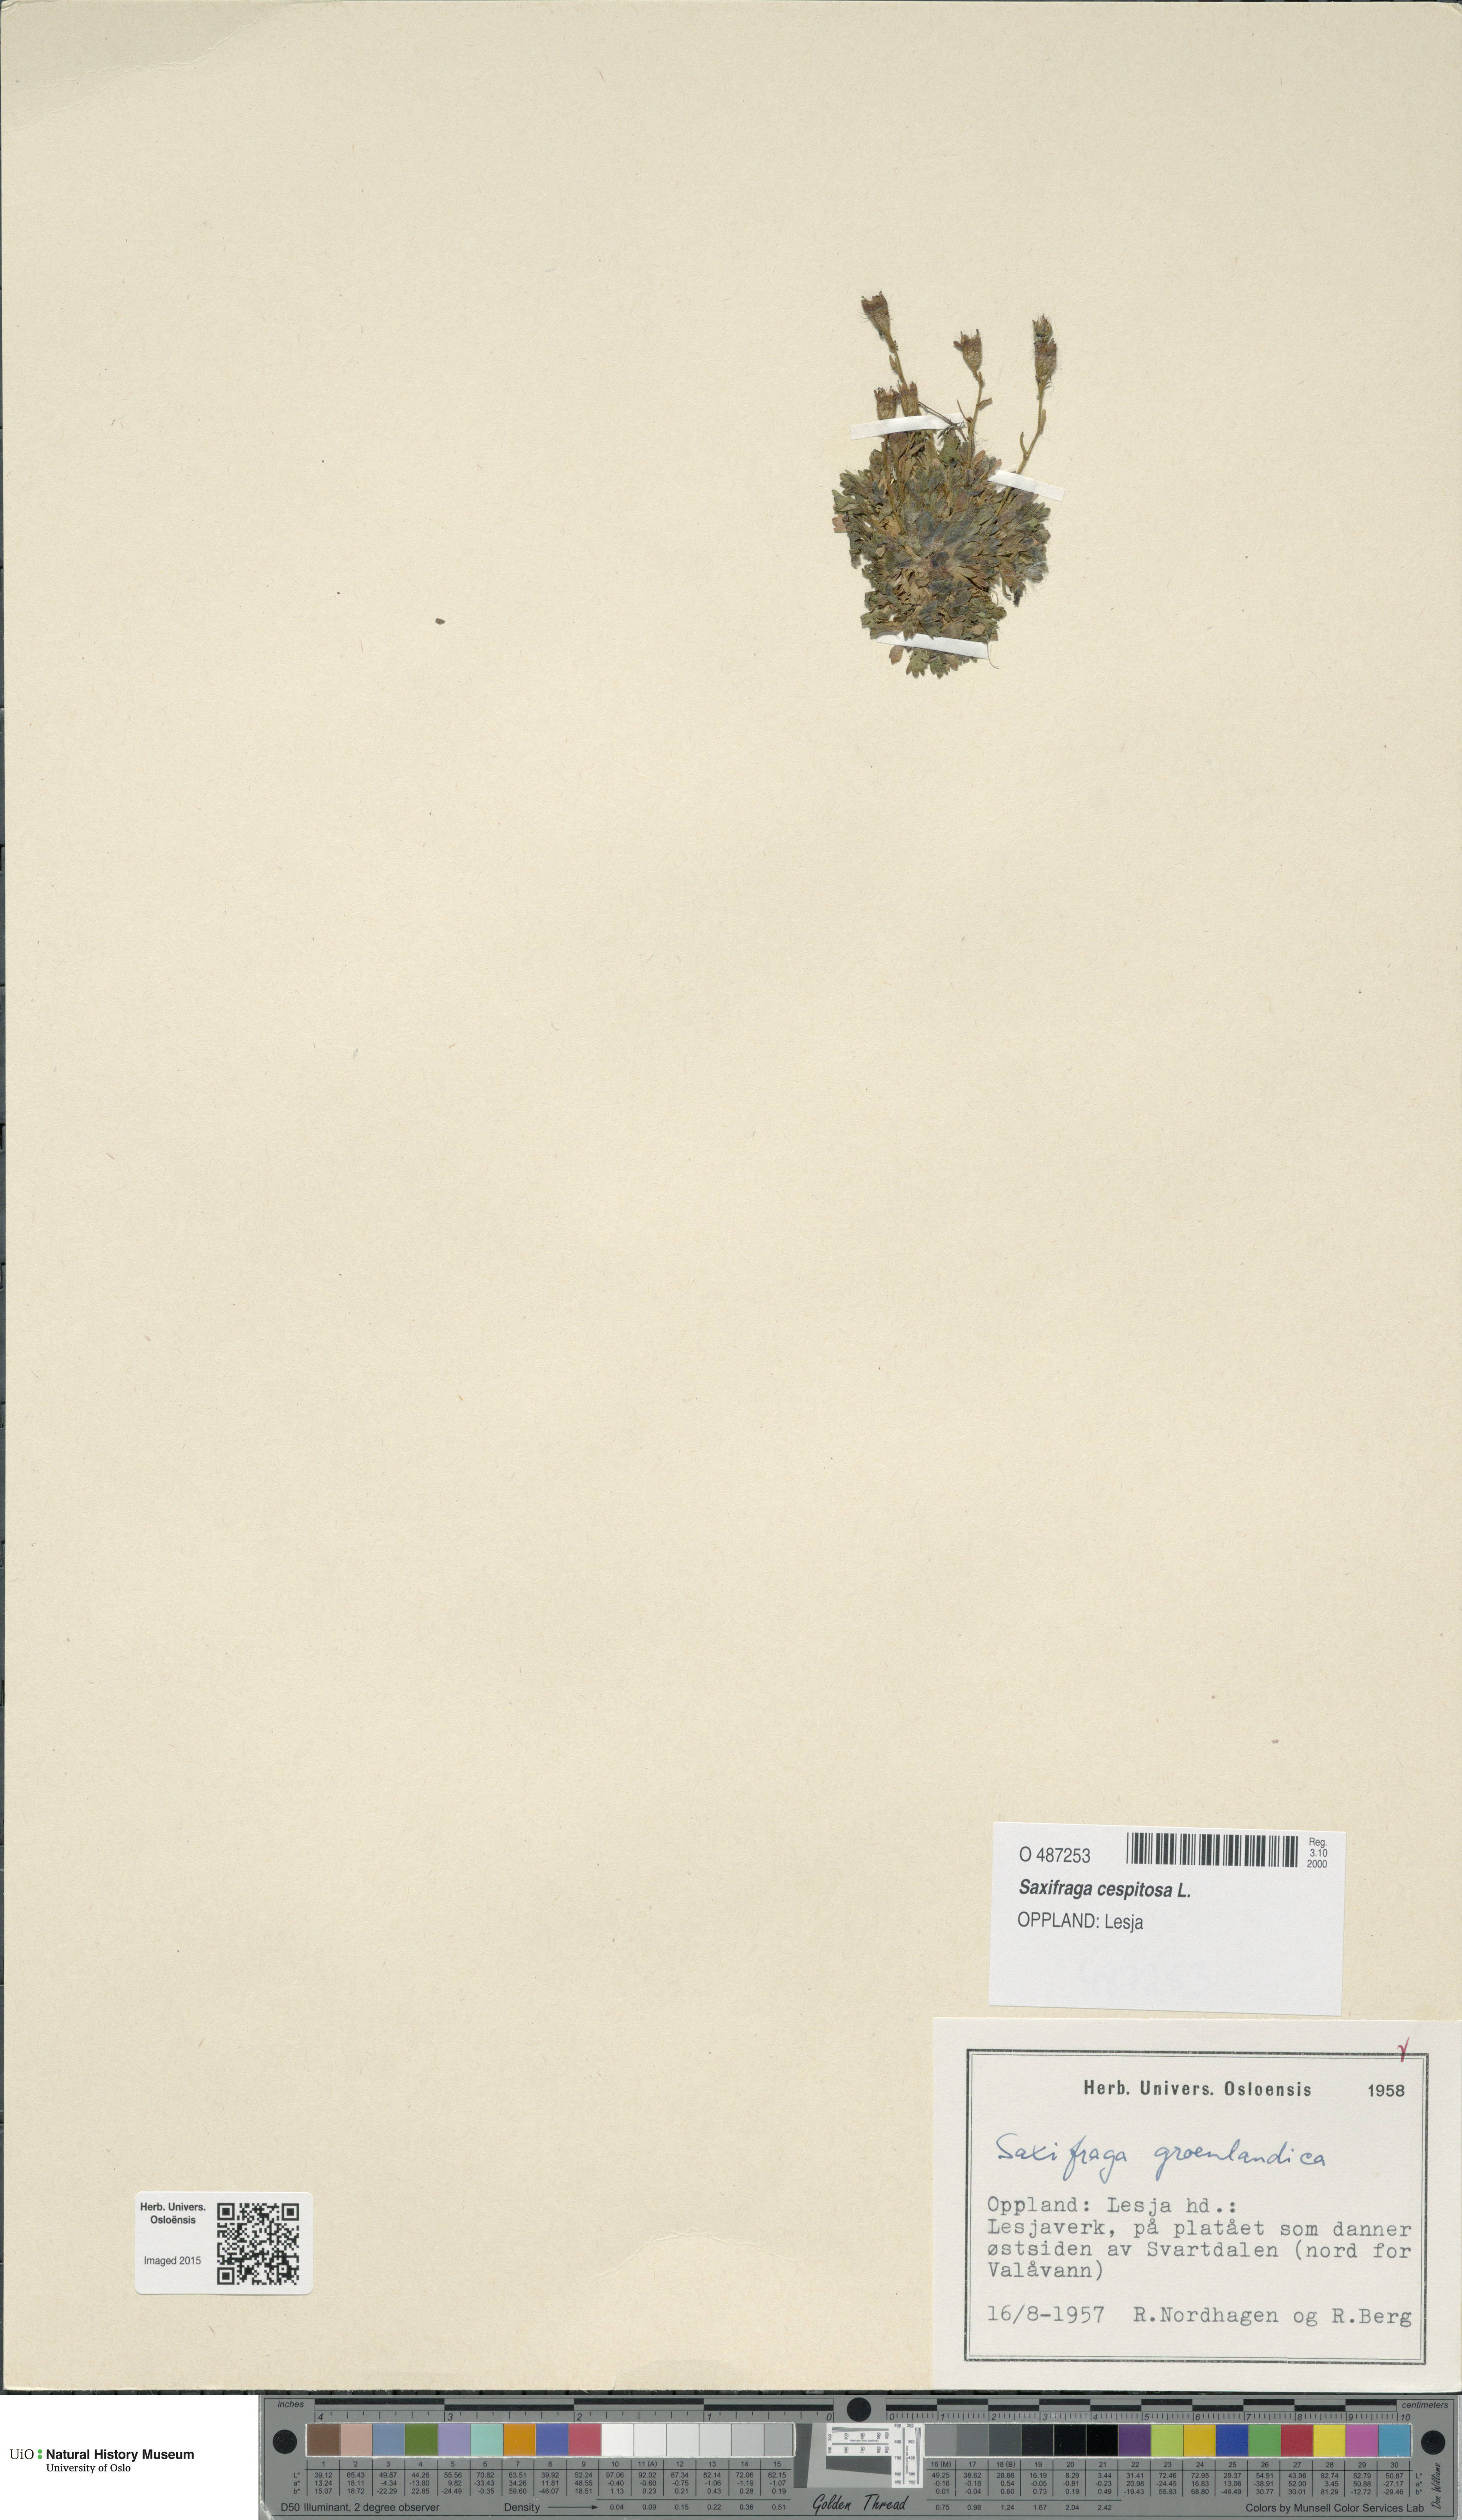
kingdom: Plantae
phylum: Tracheophyta
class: Magnoliopsida
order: Saxifragales
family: Saxifragaceae
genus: Saxifraga
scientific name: Saxifraga cespitosa
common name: Tufted saxifrage
